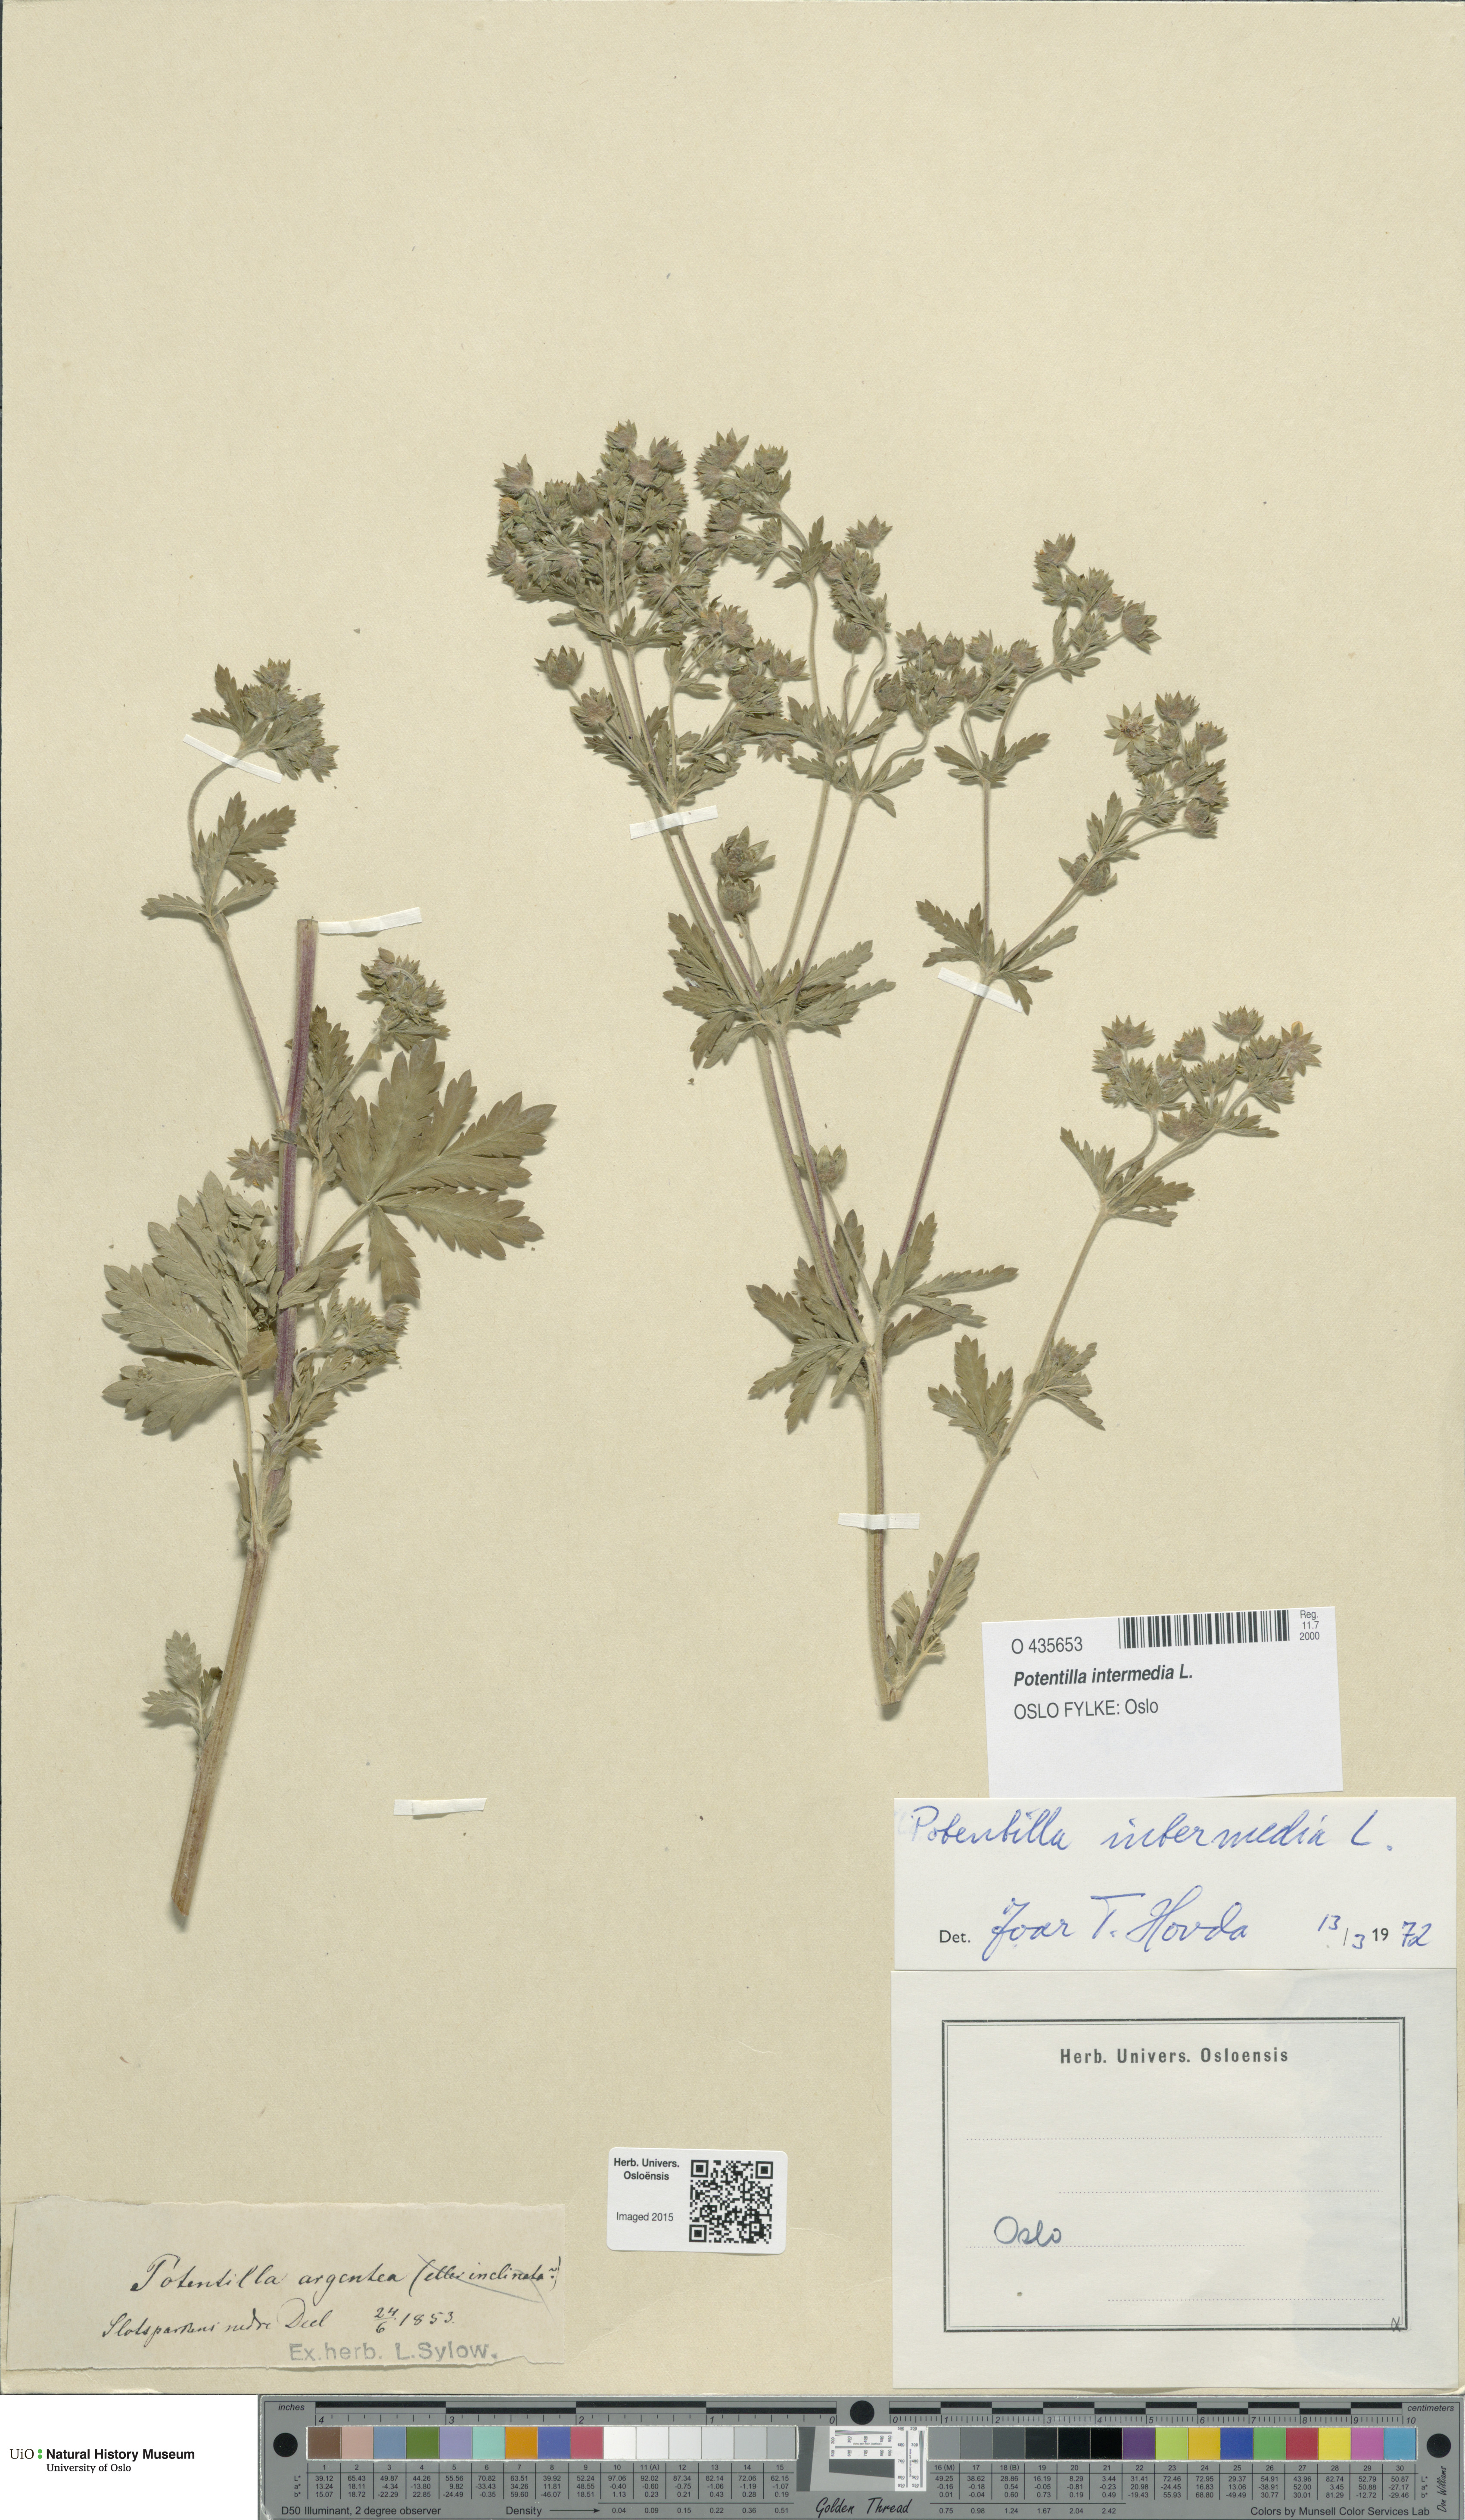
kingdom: Plantae
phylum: Tracheophyta
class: Magnoliopsida
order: Rosales
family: Rosaceae
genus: Potentilla
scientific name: Potentilla intermedia
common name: Downy cinquefoil
